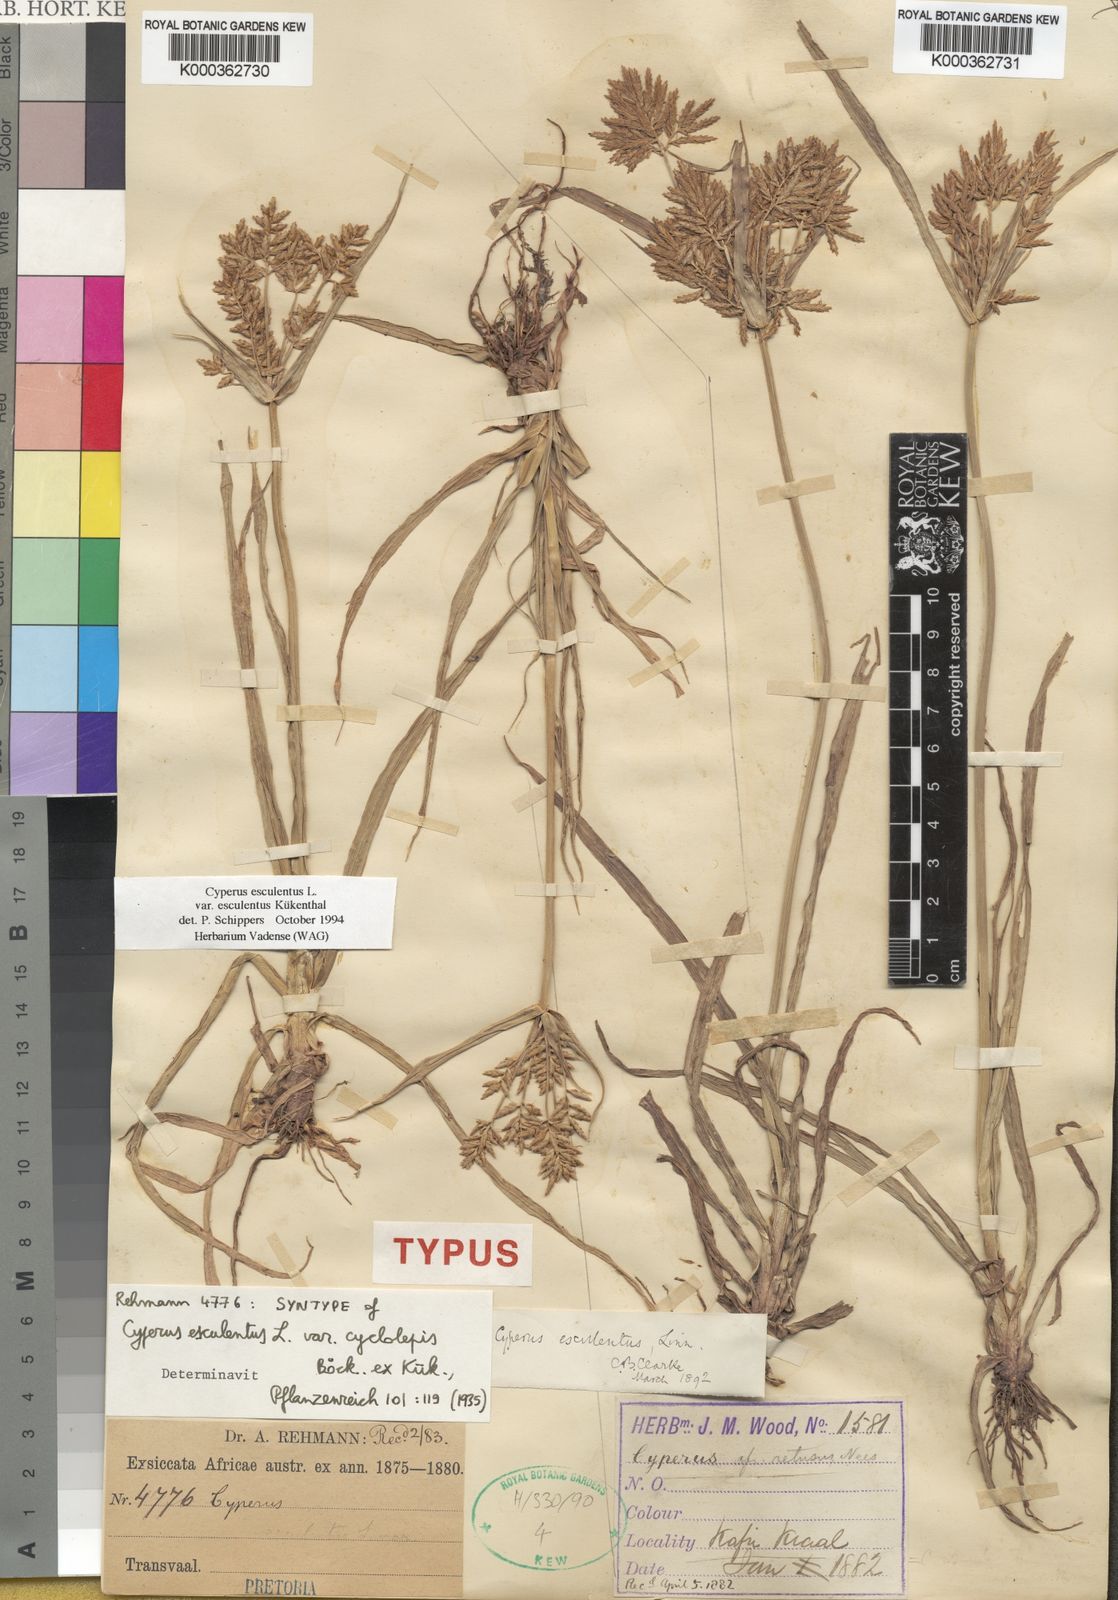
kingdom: Plantae
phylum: Tracheophyta
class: Liliopsida
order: Poales
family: Cyperaceae
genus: Cyperus
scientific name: Cyperus esculentus
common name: Yellow nutsedge
